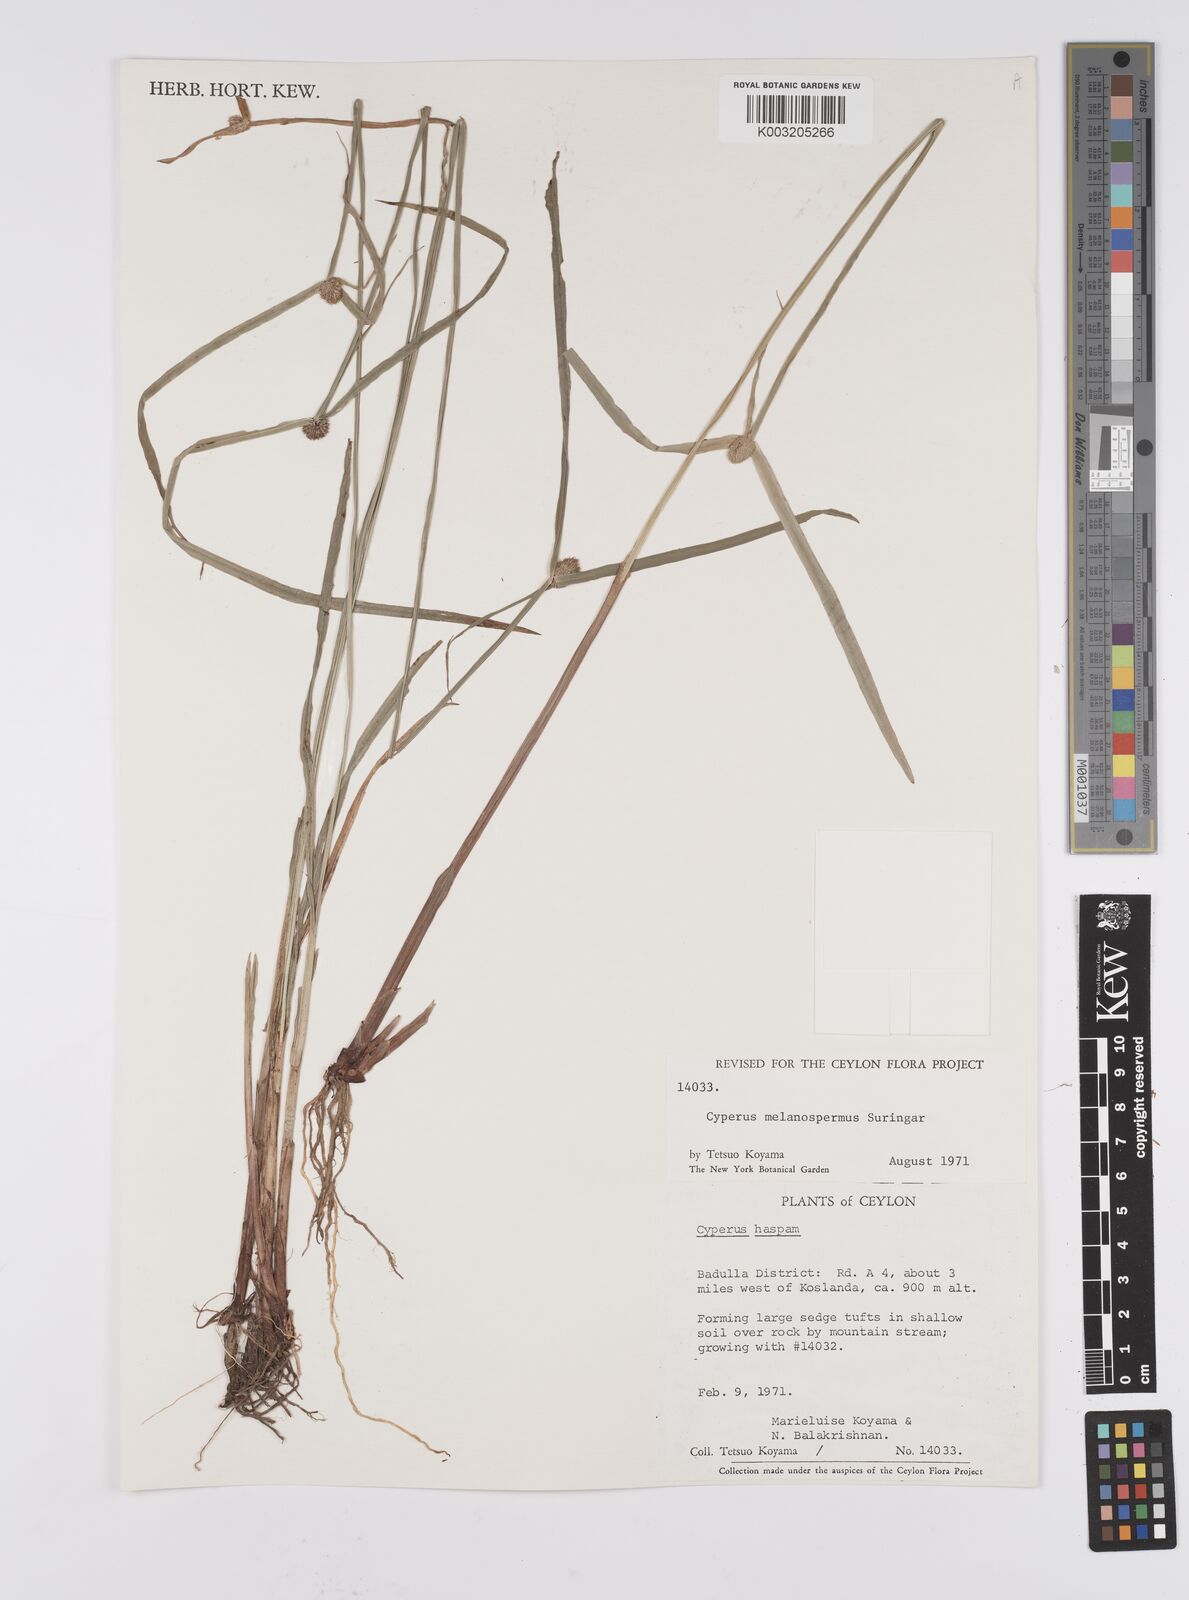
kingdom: Plantae
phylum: Tracheophyta
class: Liliopsida
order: Poales
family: Cyperaceae
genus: Cyperus
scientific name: Cyperus melanospermus
